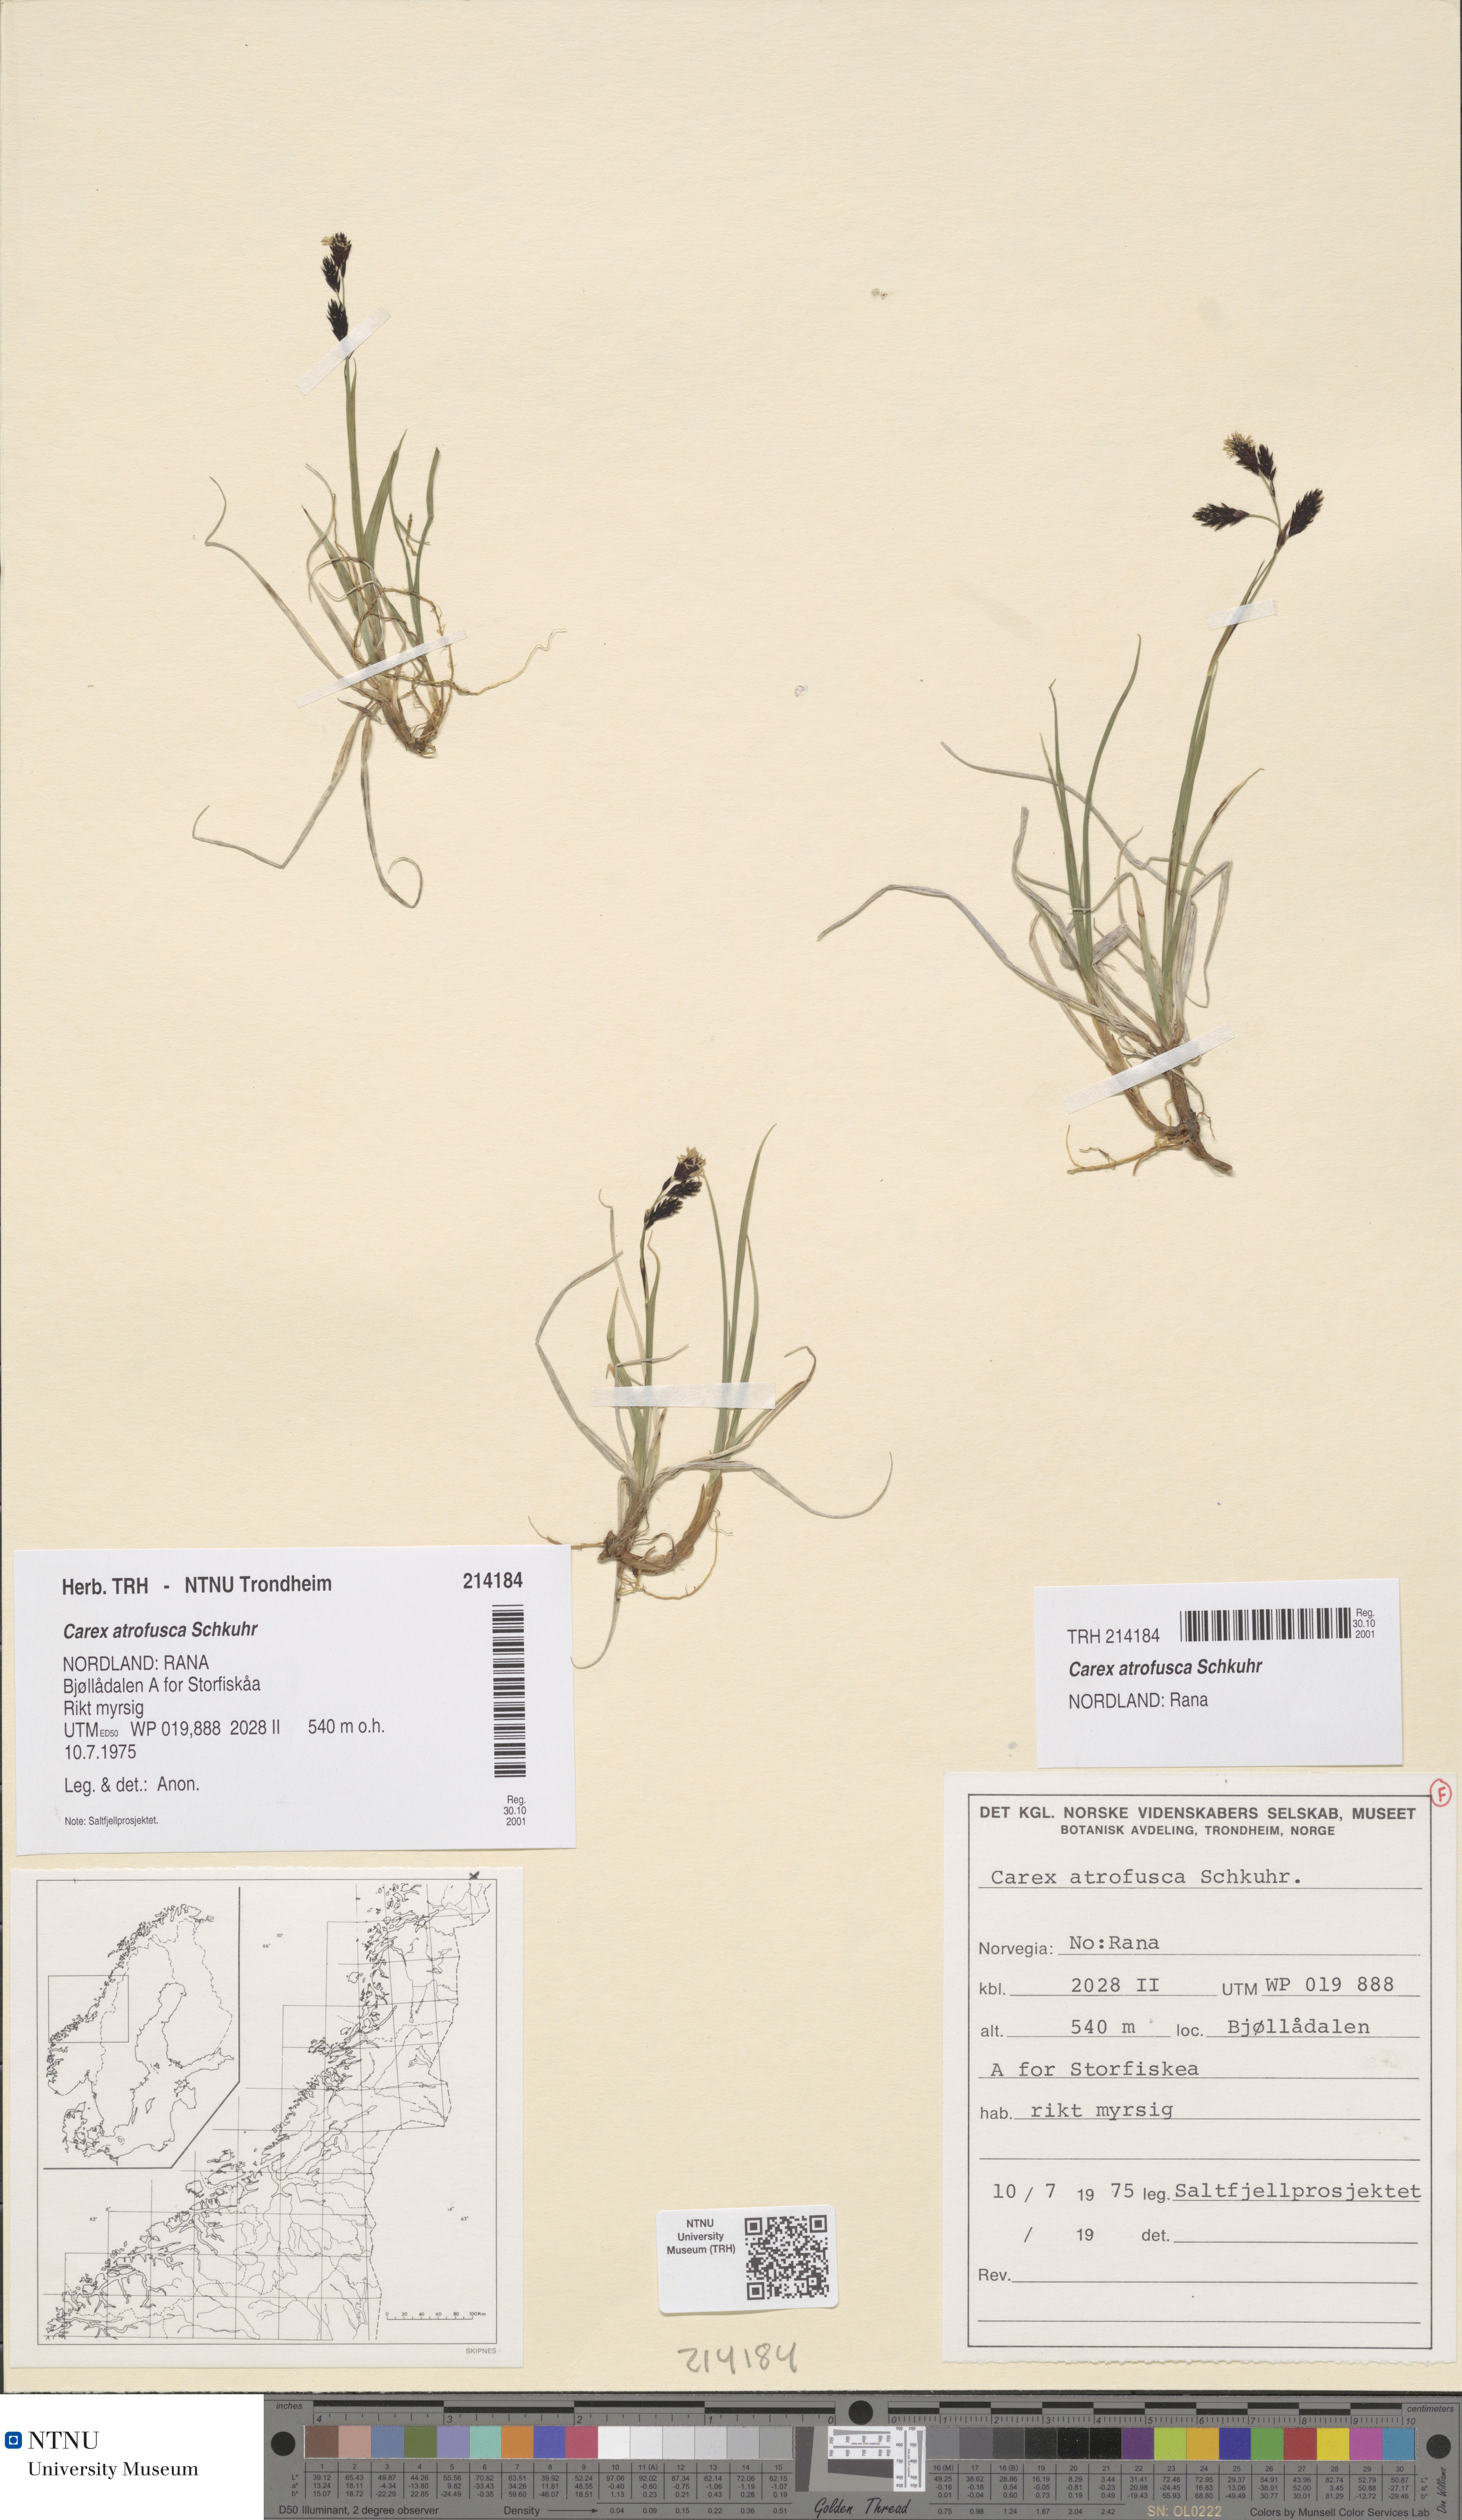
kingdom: Plantae
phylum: Tracheophyta
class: Liliopsida
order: Poales
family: Cyperaceae
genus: Carex
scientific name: Carex atrofusca
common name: Scorched alpine-sedge
